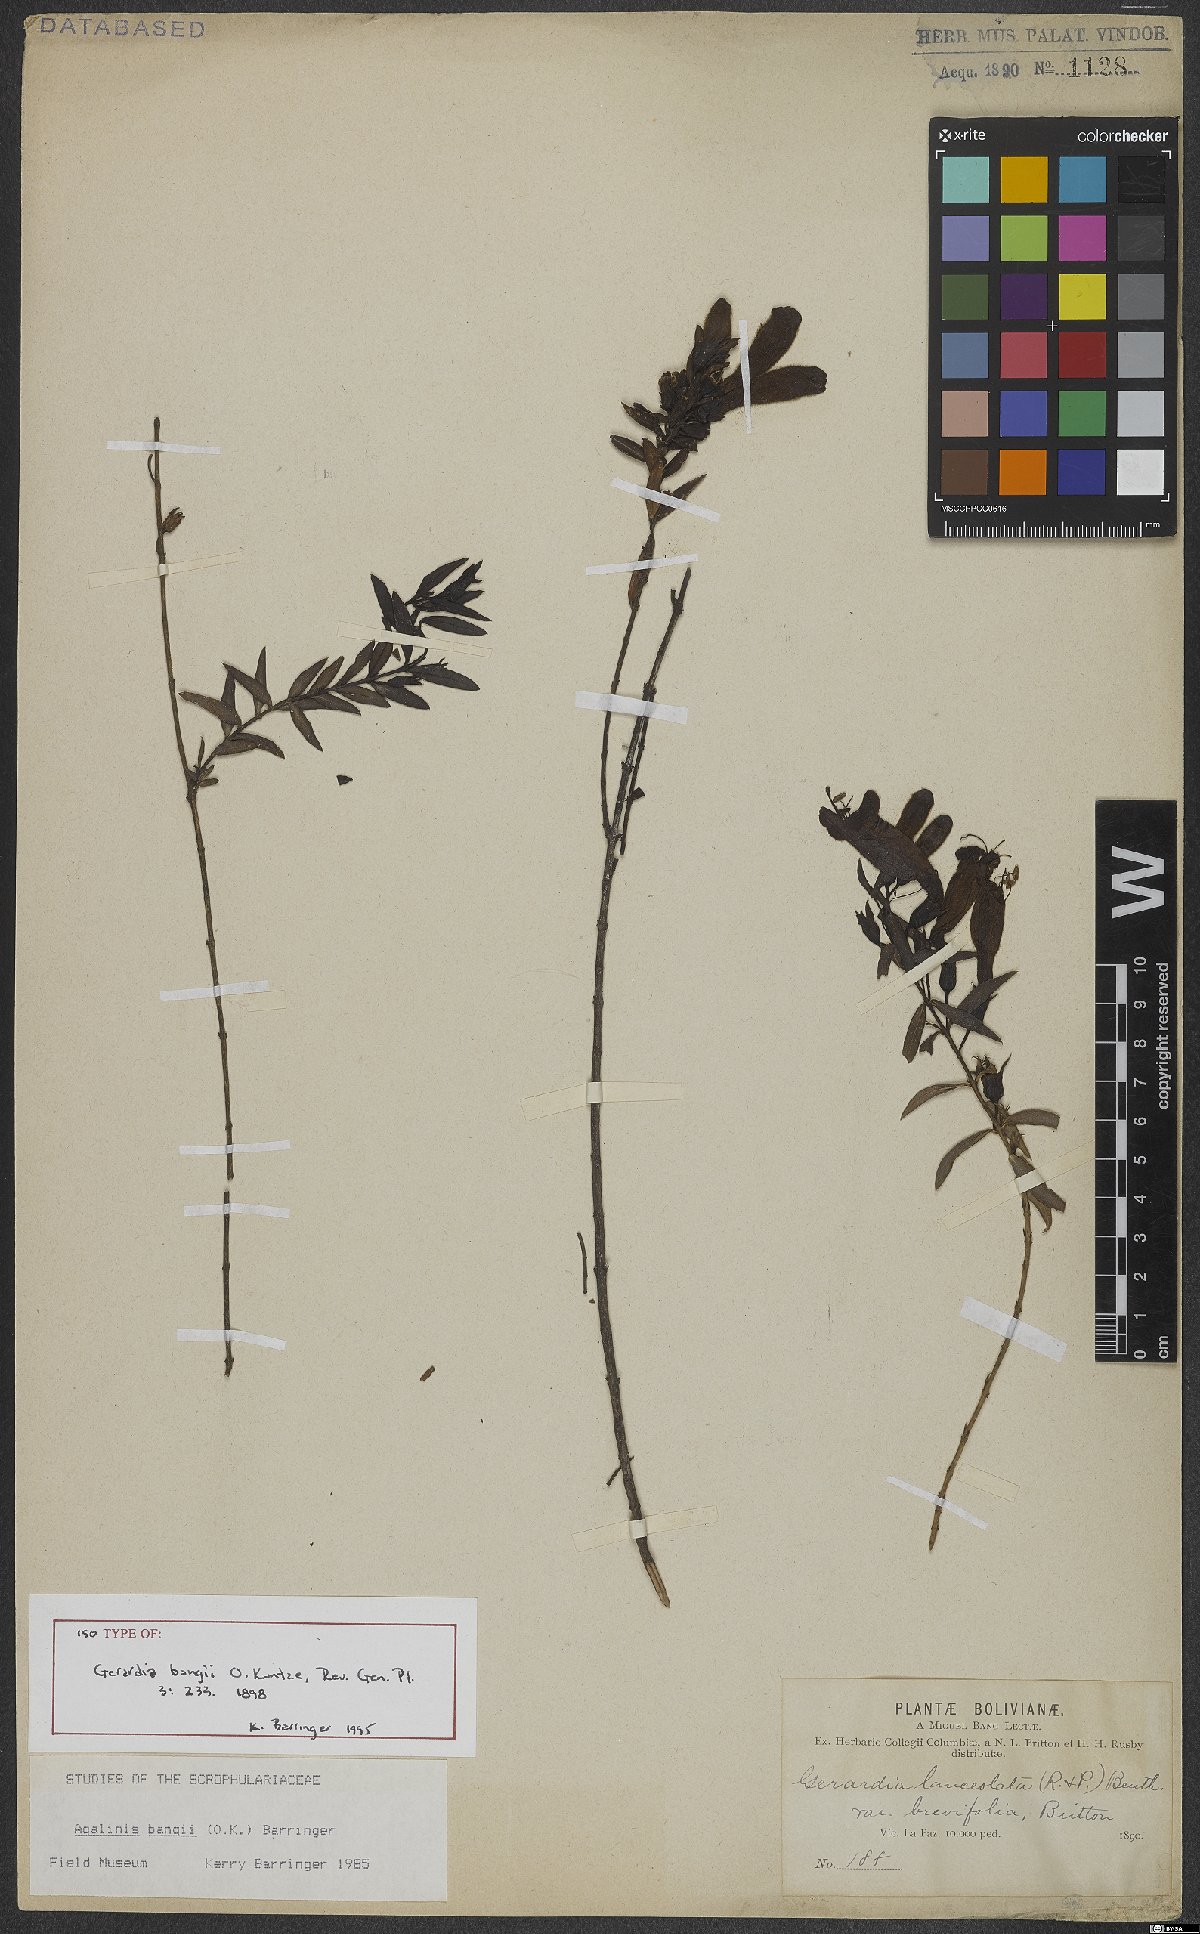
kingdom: Plantae
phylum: Tracheophyta
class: Magnoliopsida
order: Lamiales
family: Orobanchaceae
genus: Agalinis
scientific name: Agalinis bangii
